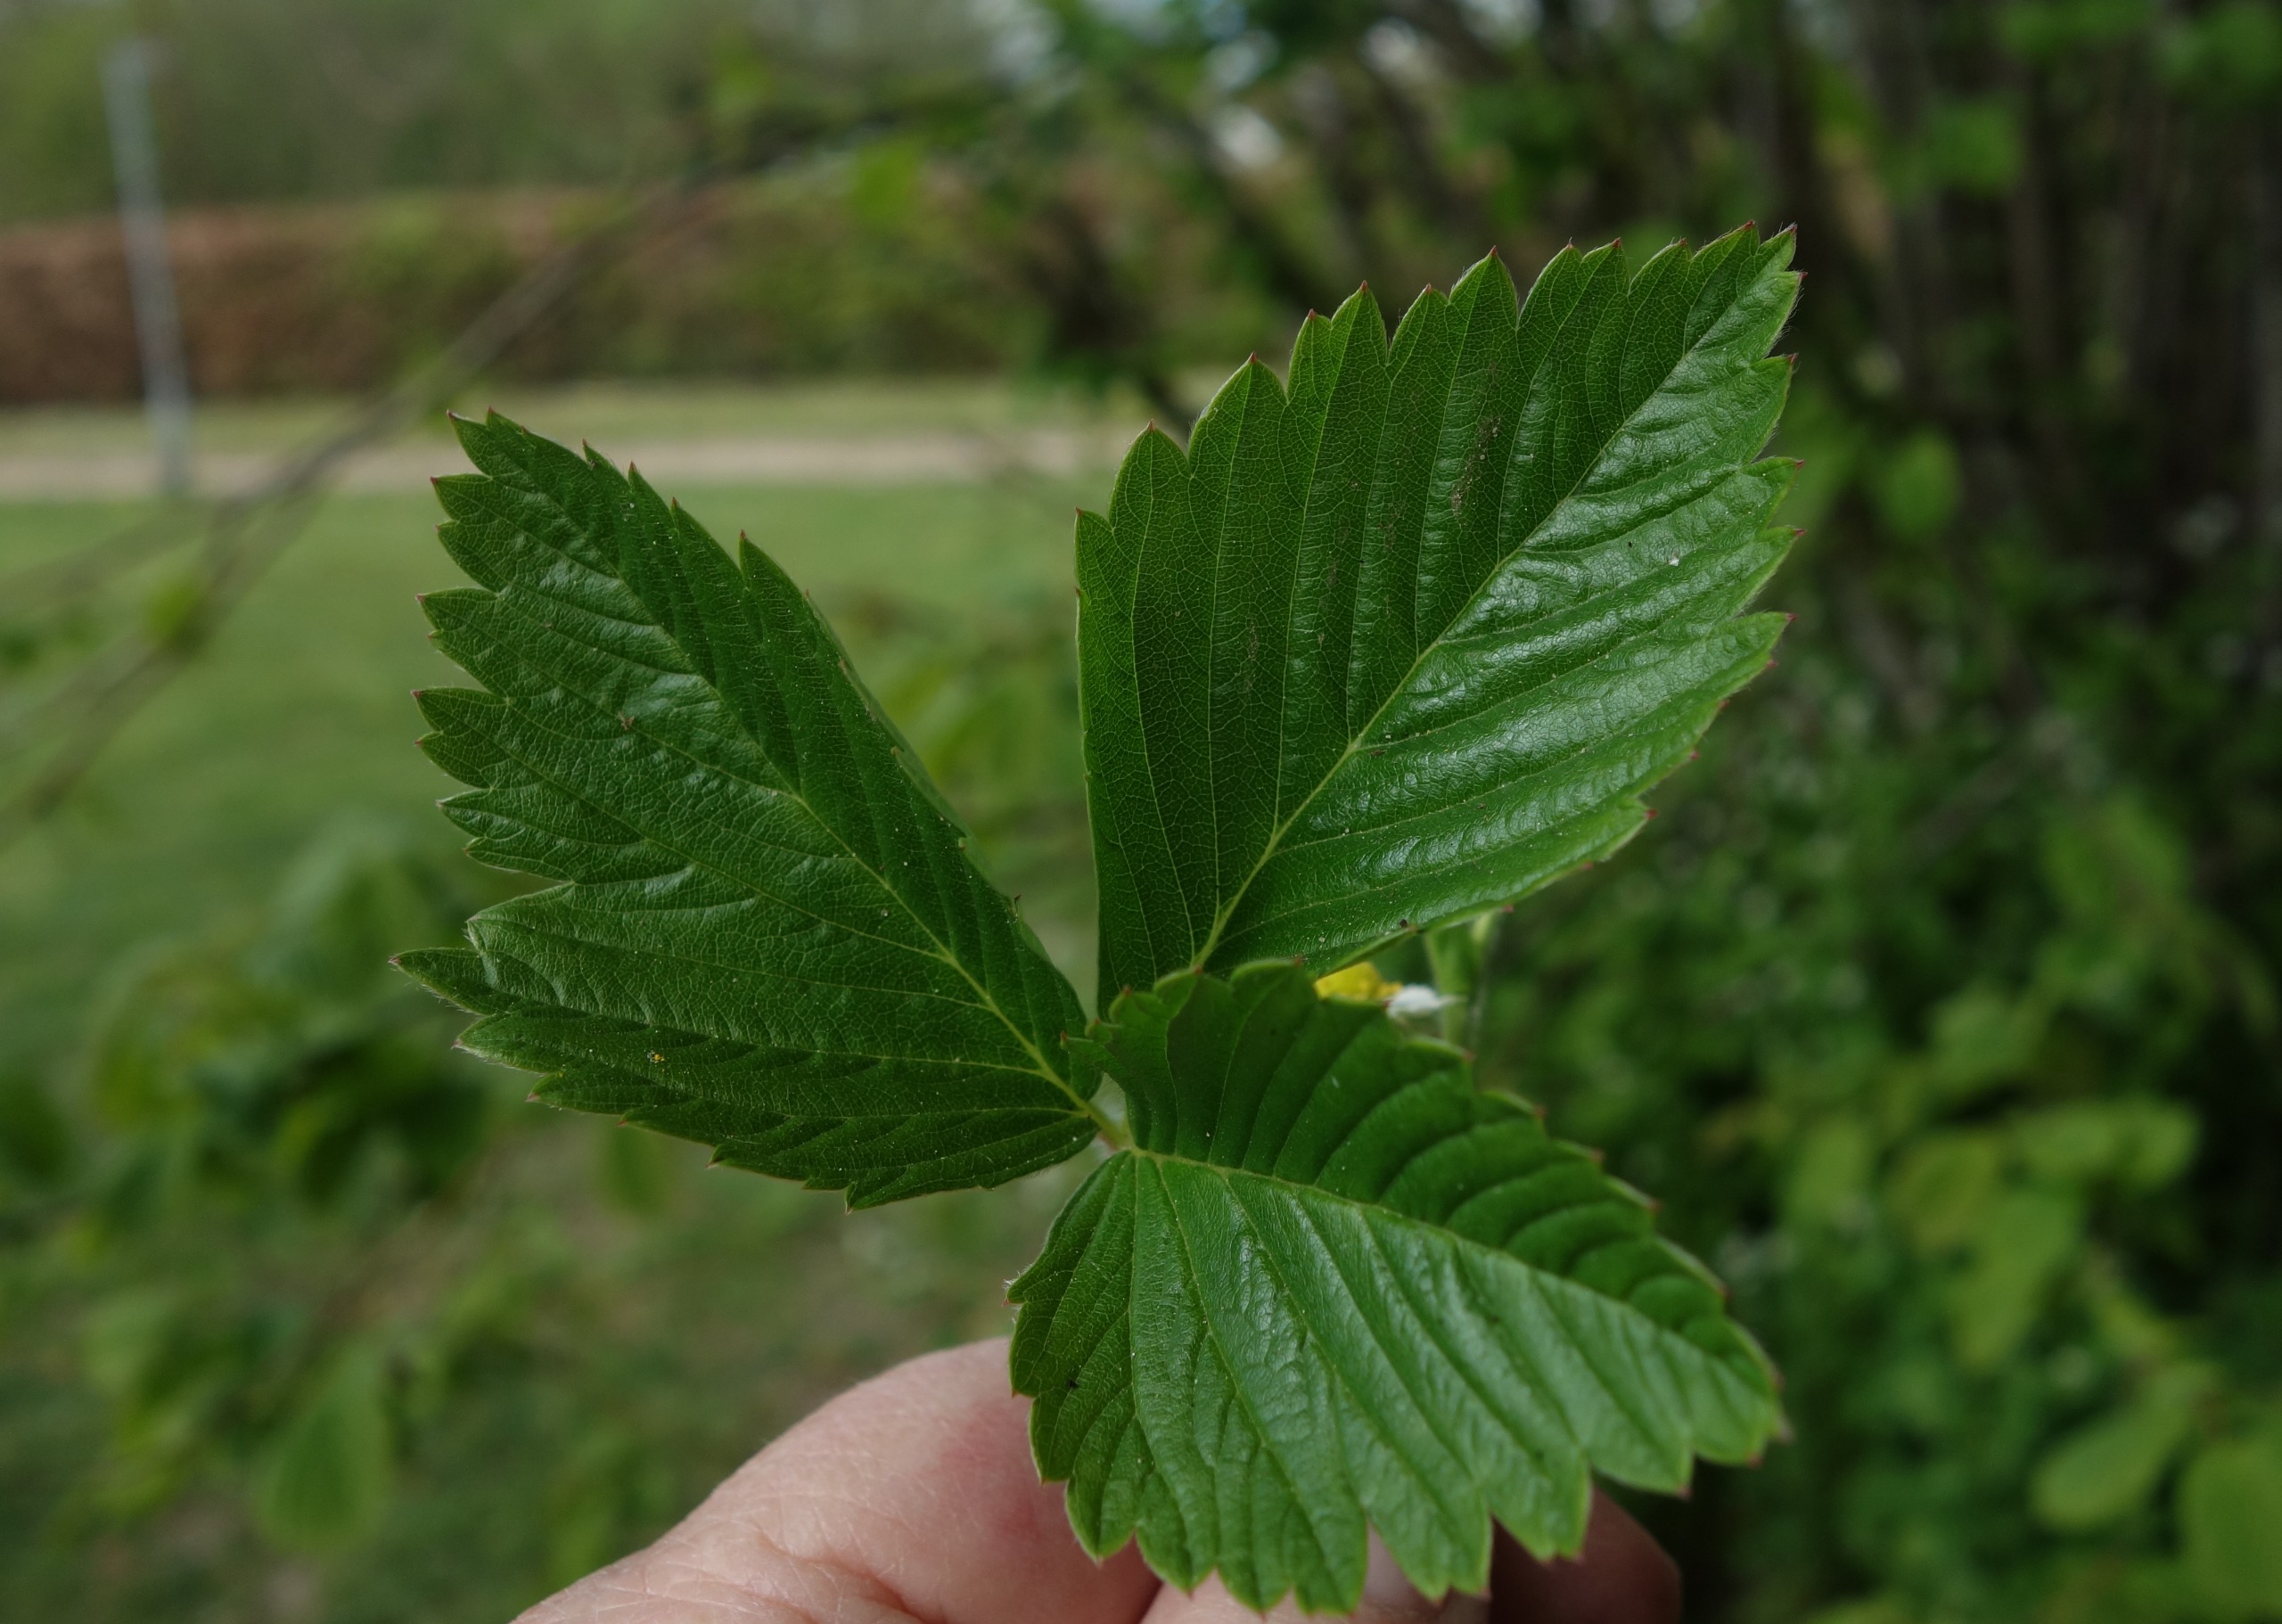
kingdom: Plantae
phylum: Tracheophyta
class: Magnoliopsida
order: Rosales
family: Rosaceae
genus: Fragaria
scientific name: Fragaria moschata
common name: Spansk jordbær
